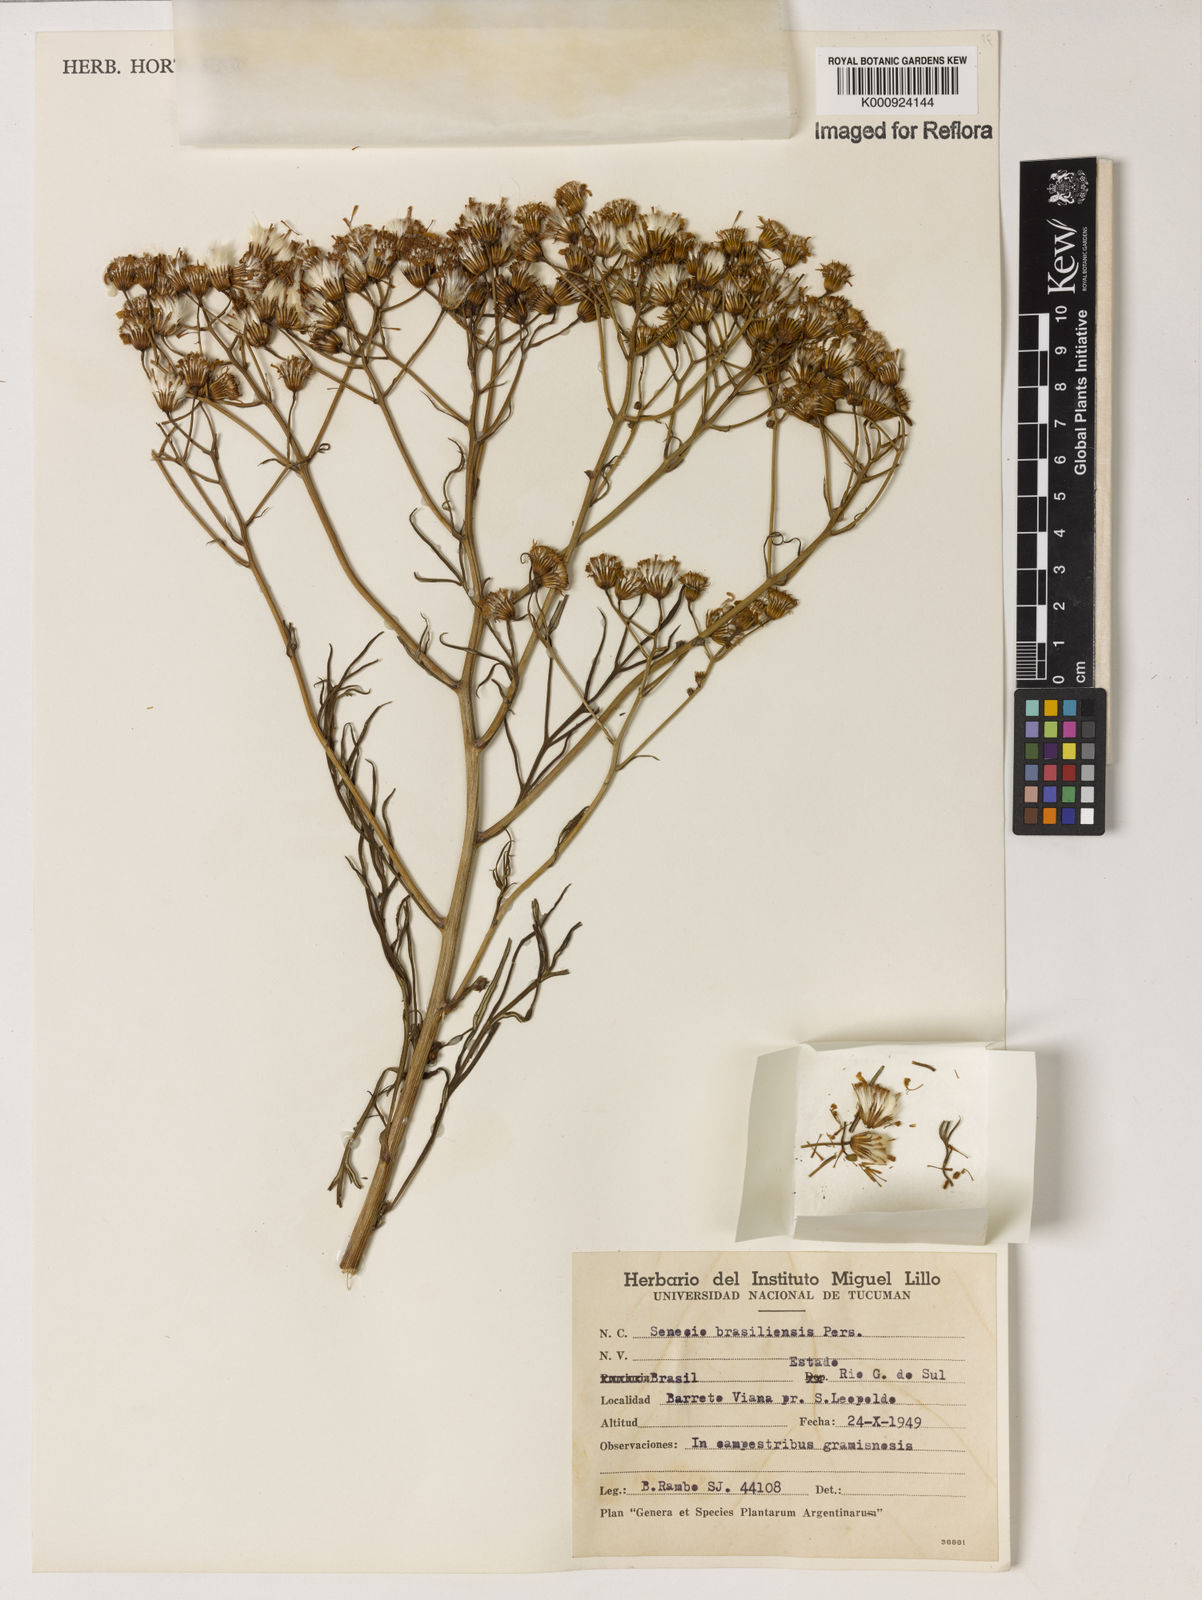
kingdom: Plantae
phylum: Tracheophyta
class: Magnoliopsida
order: Asterales
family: Asteraceae
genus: Senecio
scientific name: Senecio brasiliensis
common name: Hemp-leaf ragwort
